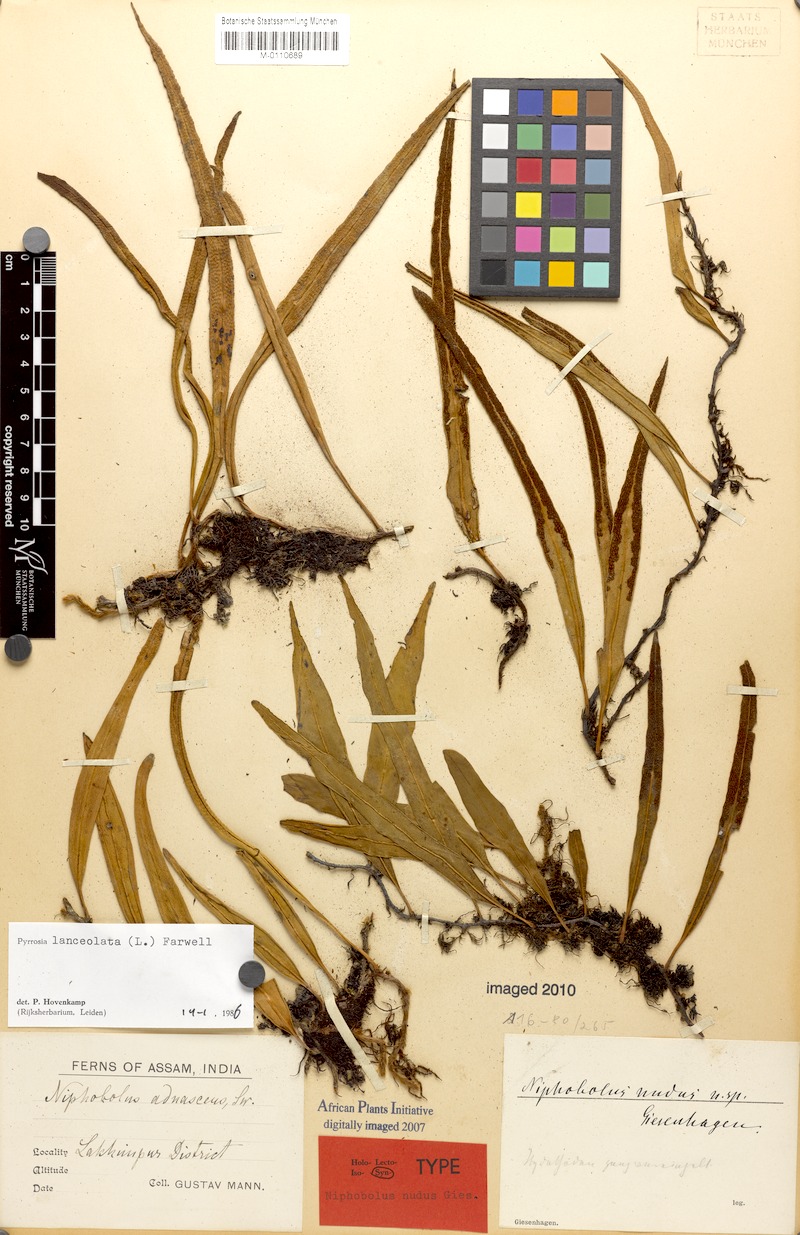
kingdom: Plantae
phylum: Tracheophyta
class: Polypodiopsida
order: Polypodiales
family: Polypodiaceae
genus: Pyrrosia
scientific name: Pyrrosia lanceolata
